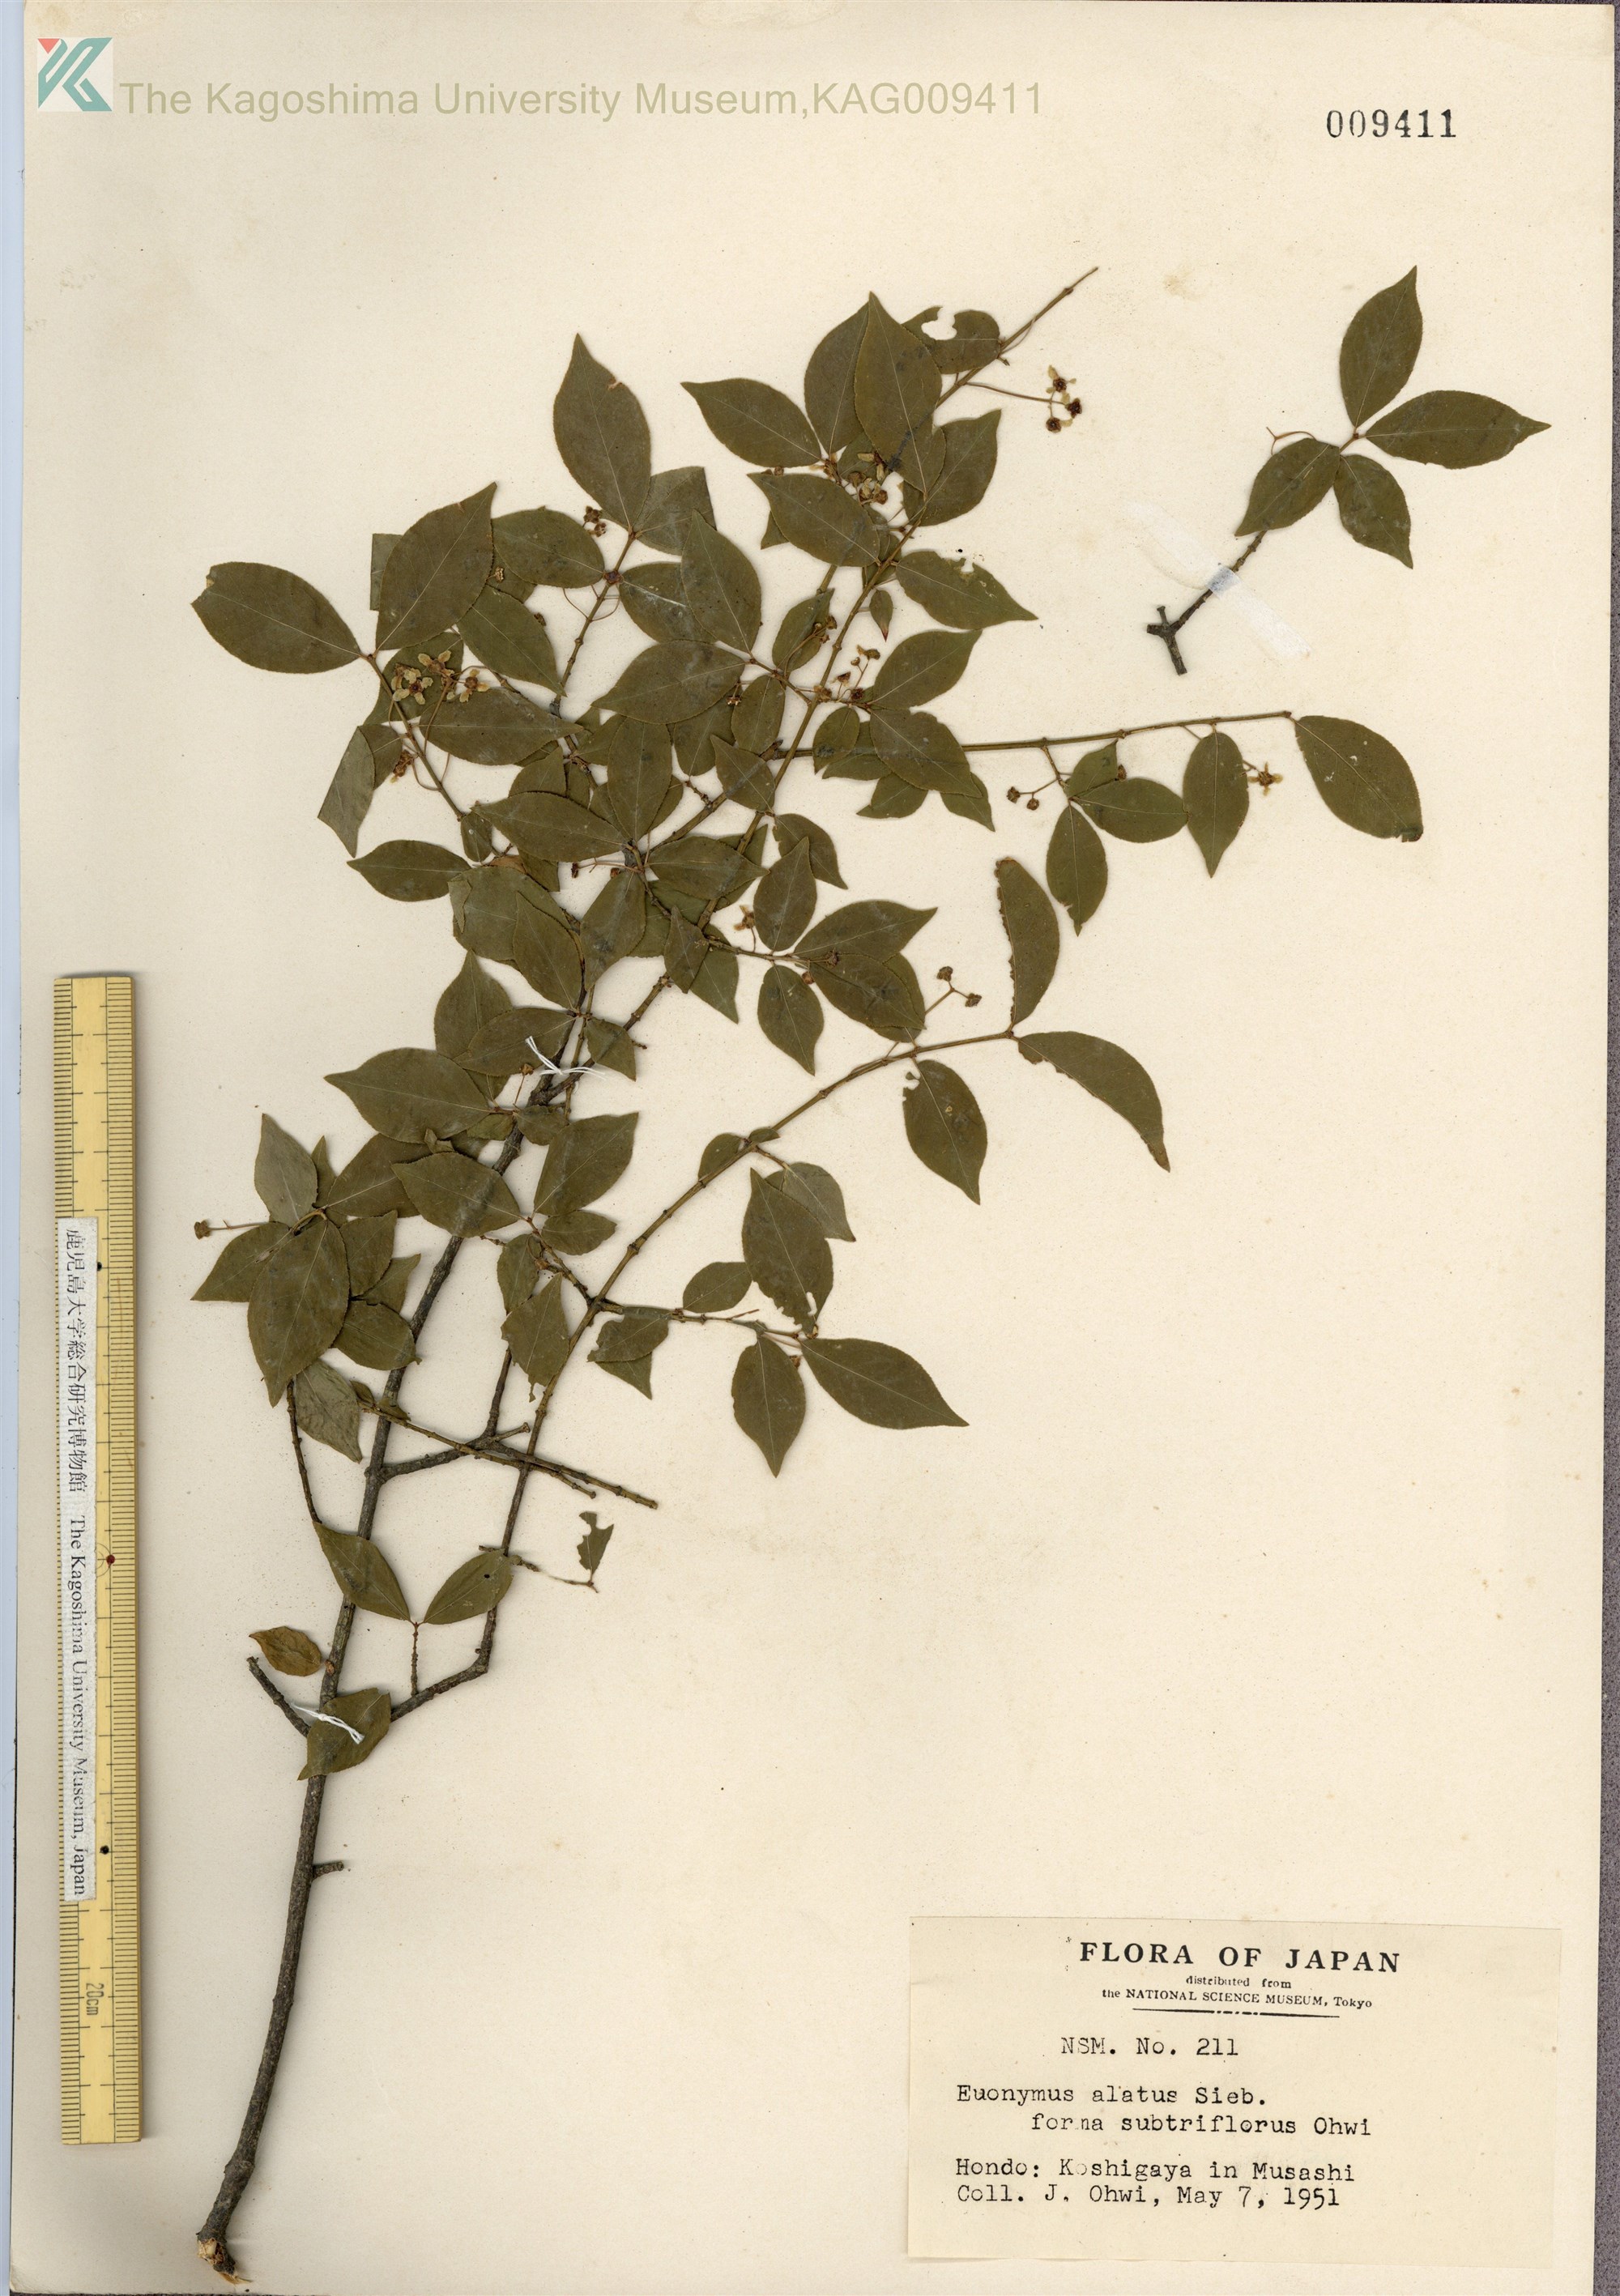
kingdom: Plantae
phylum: Tracheophyta
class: Magnoliopsida
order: Celastrales
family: Celastraceae
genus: Euonymus
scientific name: Euonymus alatus
